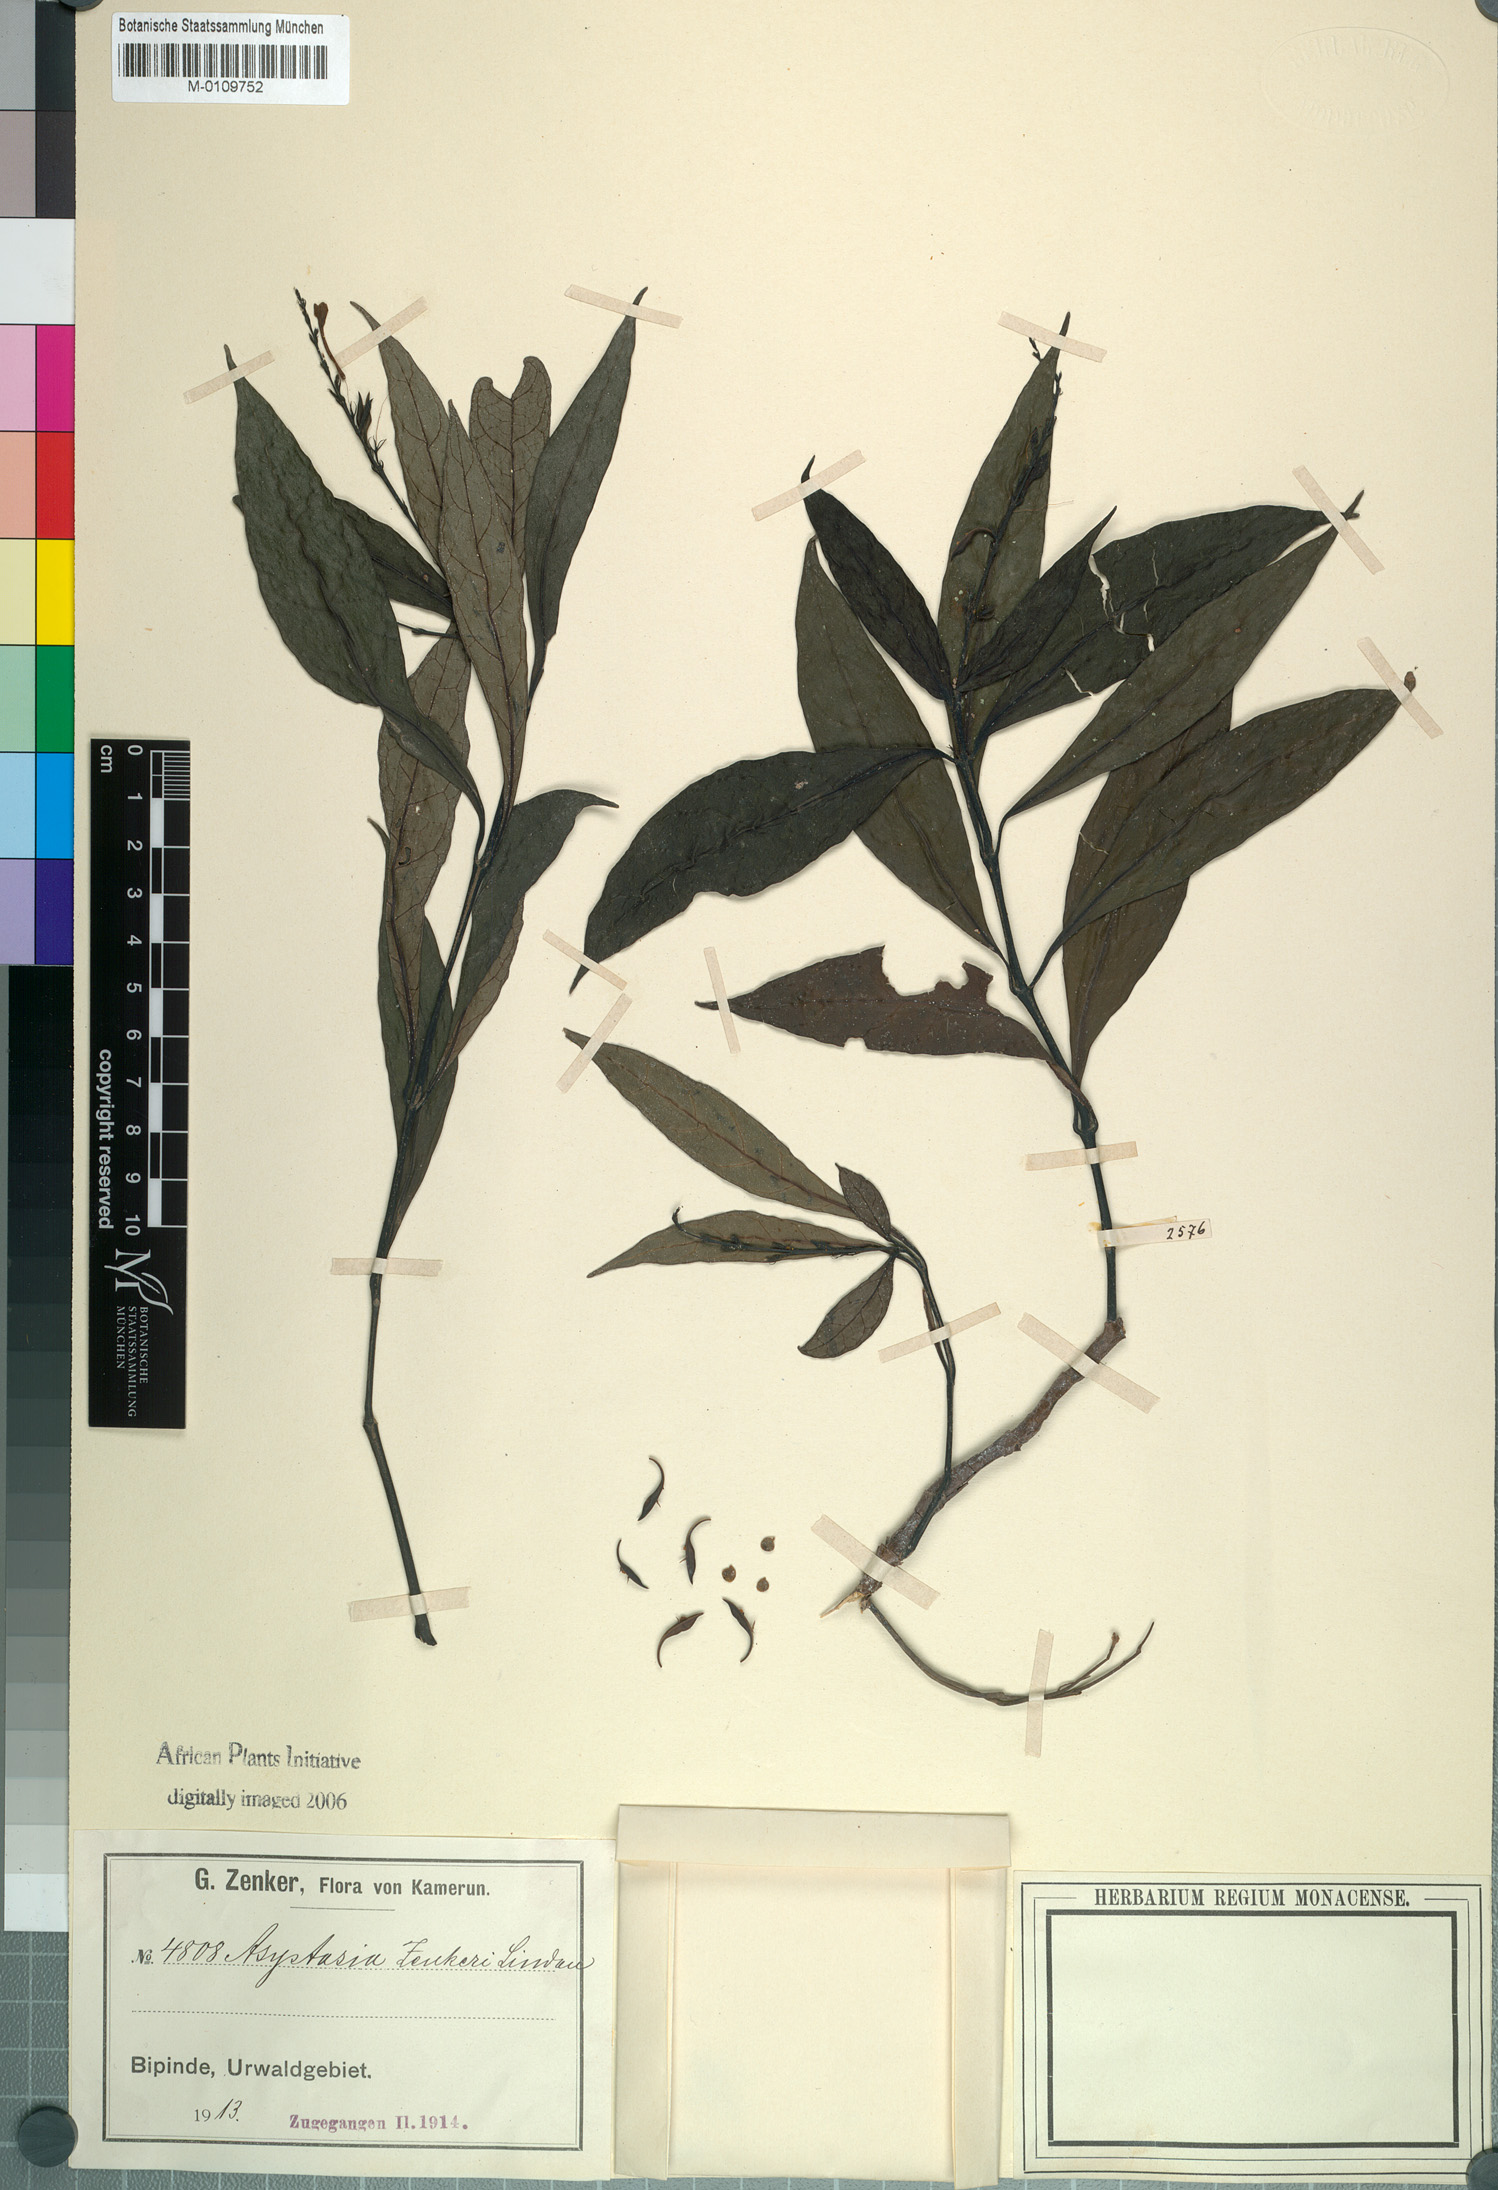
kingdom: Plantae
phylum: Tracheophyta
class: Magnoliopsida
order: Lamiales
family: Acanthaceae
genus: Asystasia
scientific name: Asystasia
